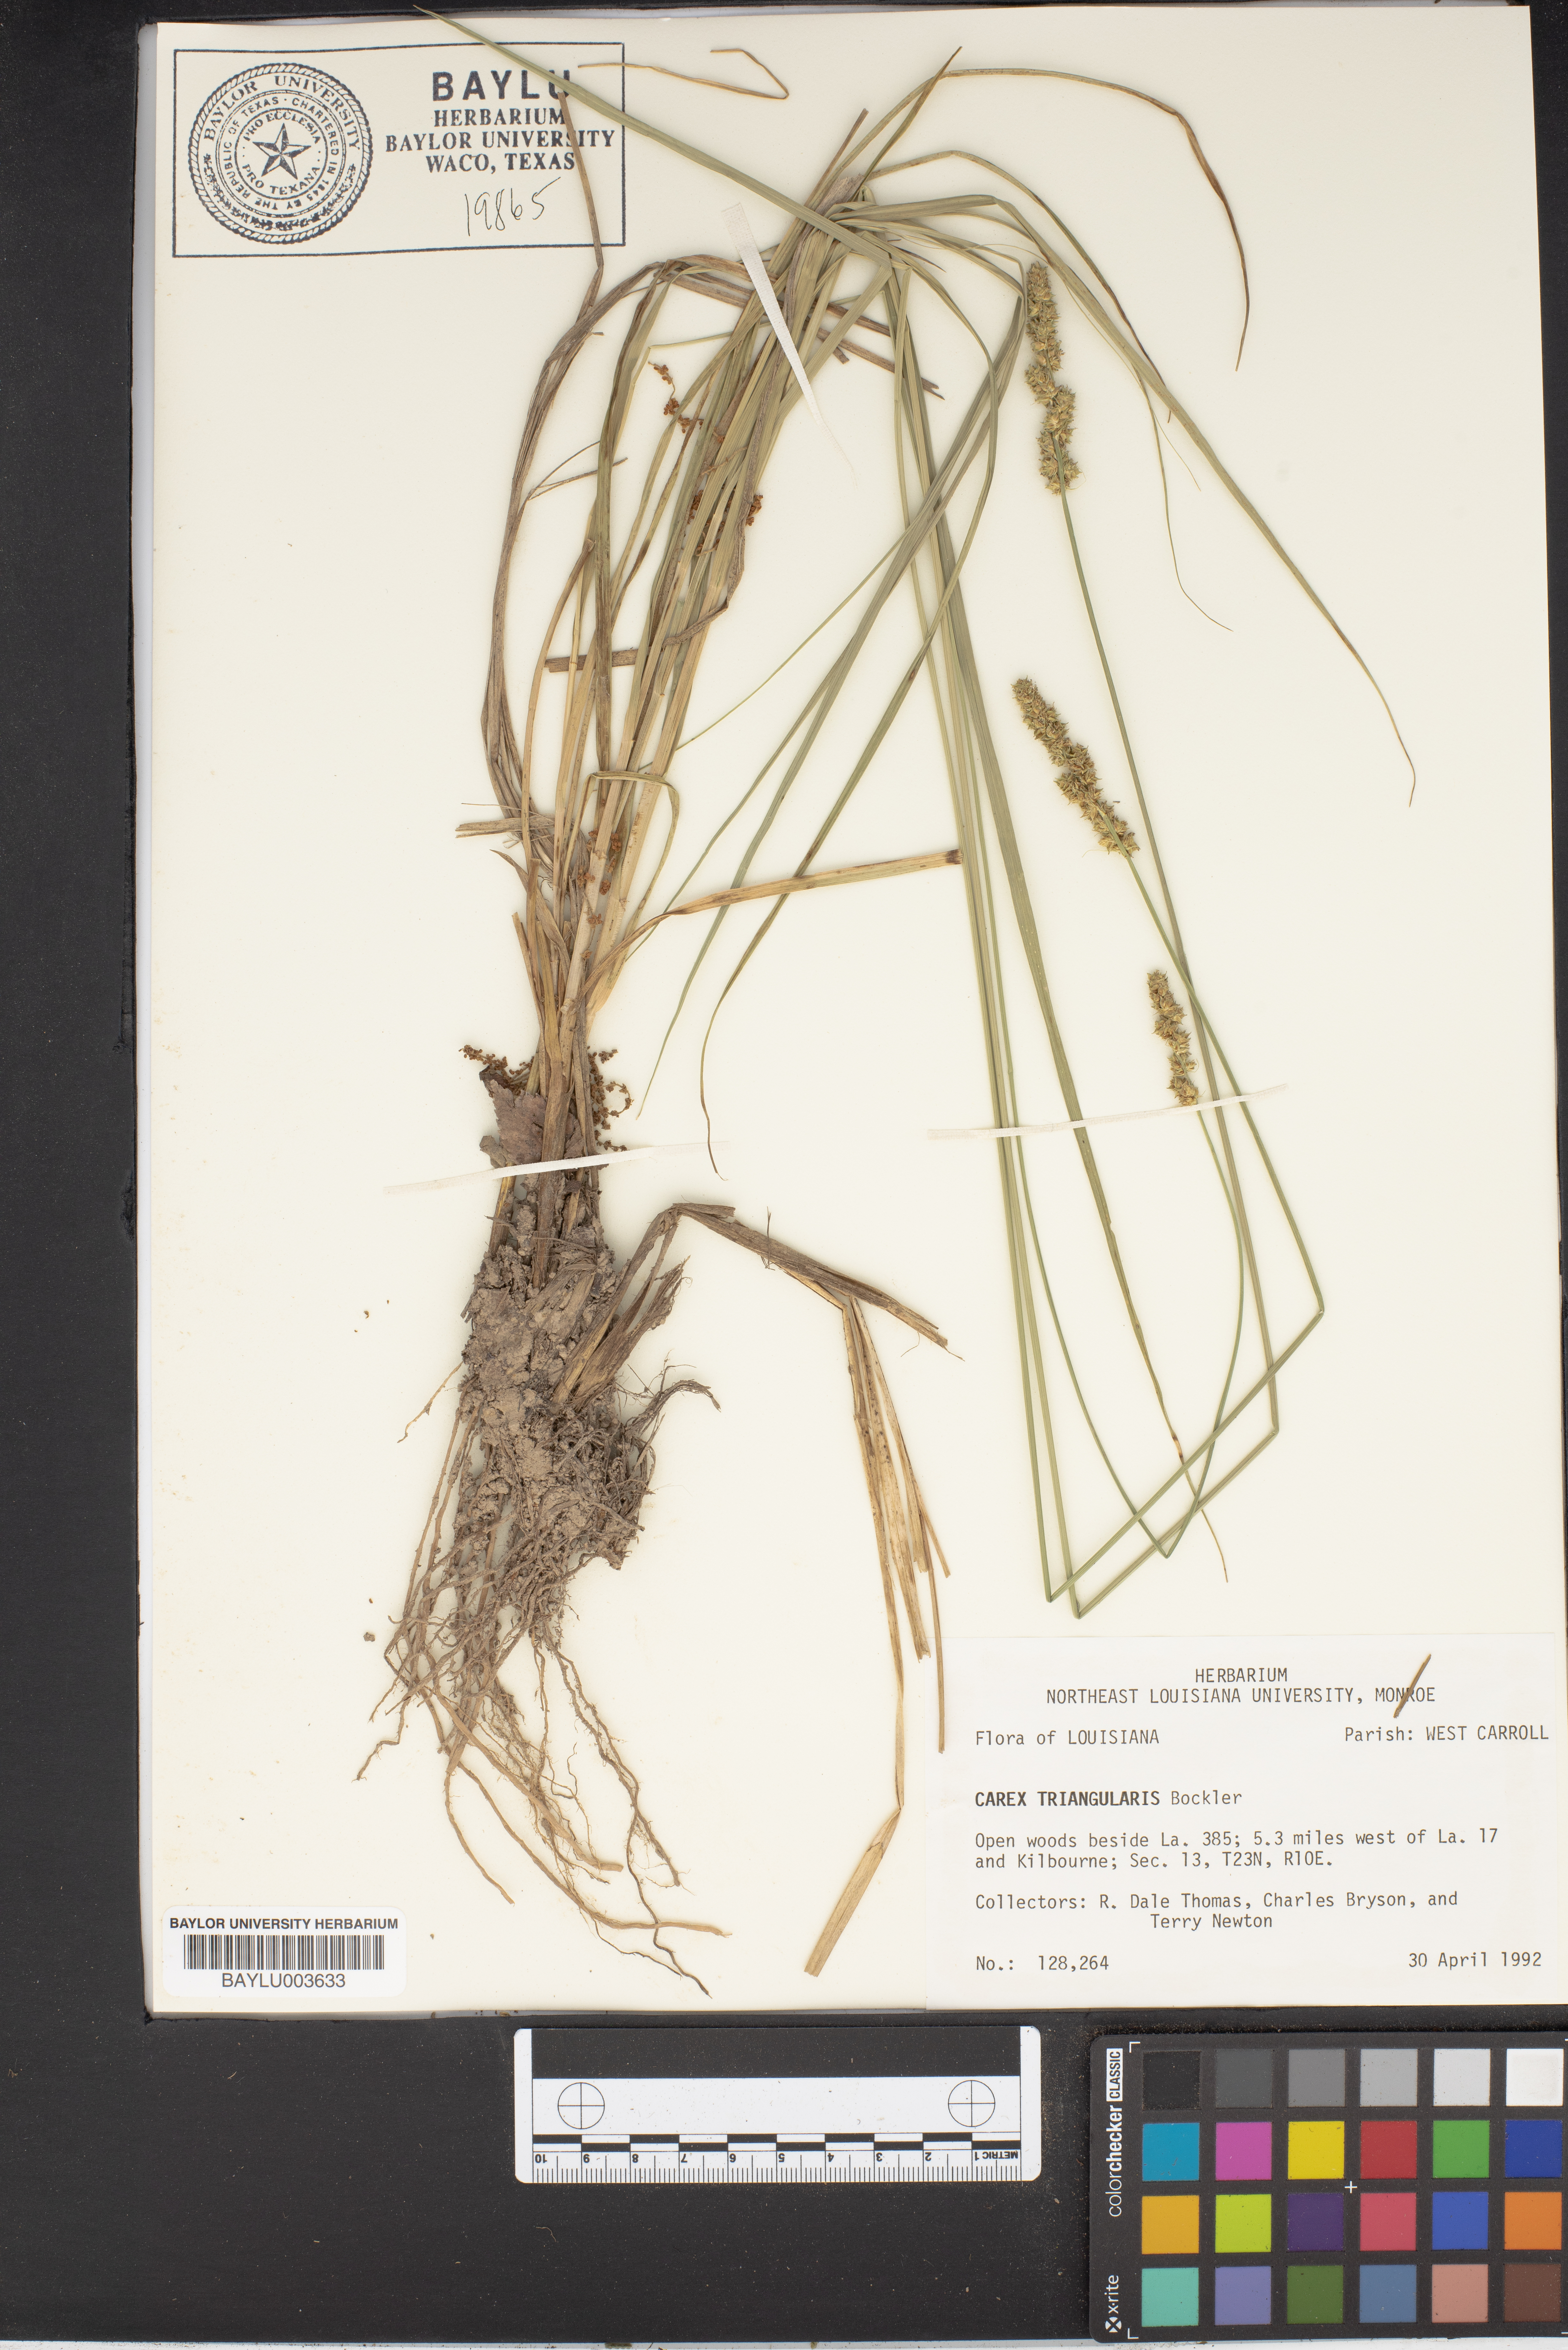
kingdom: Plantae
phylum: Tracheophyta
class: Liliopsida
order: Poales
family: Cyperaceae
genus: Carex
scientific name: Carex triangularis
